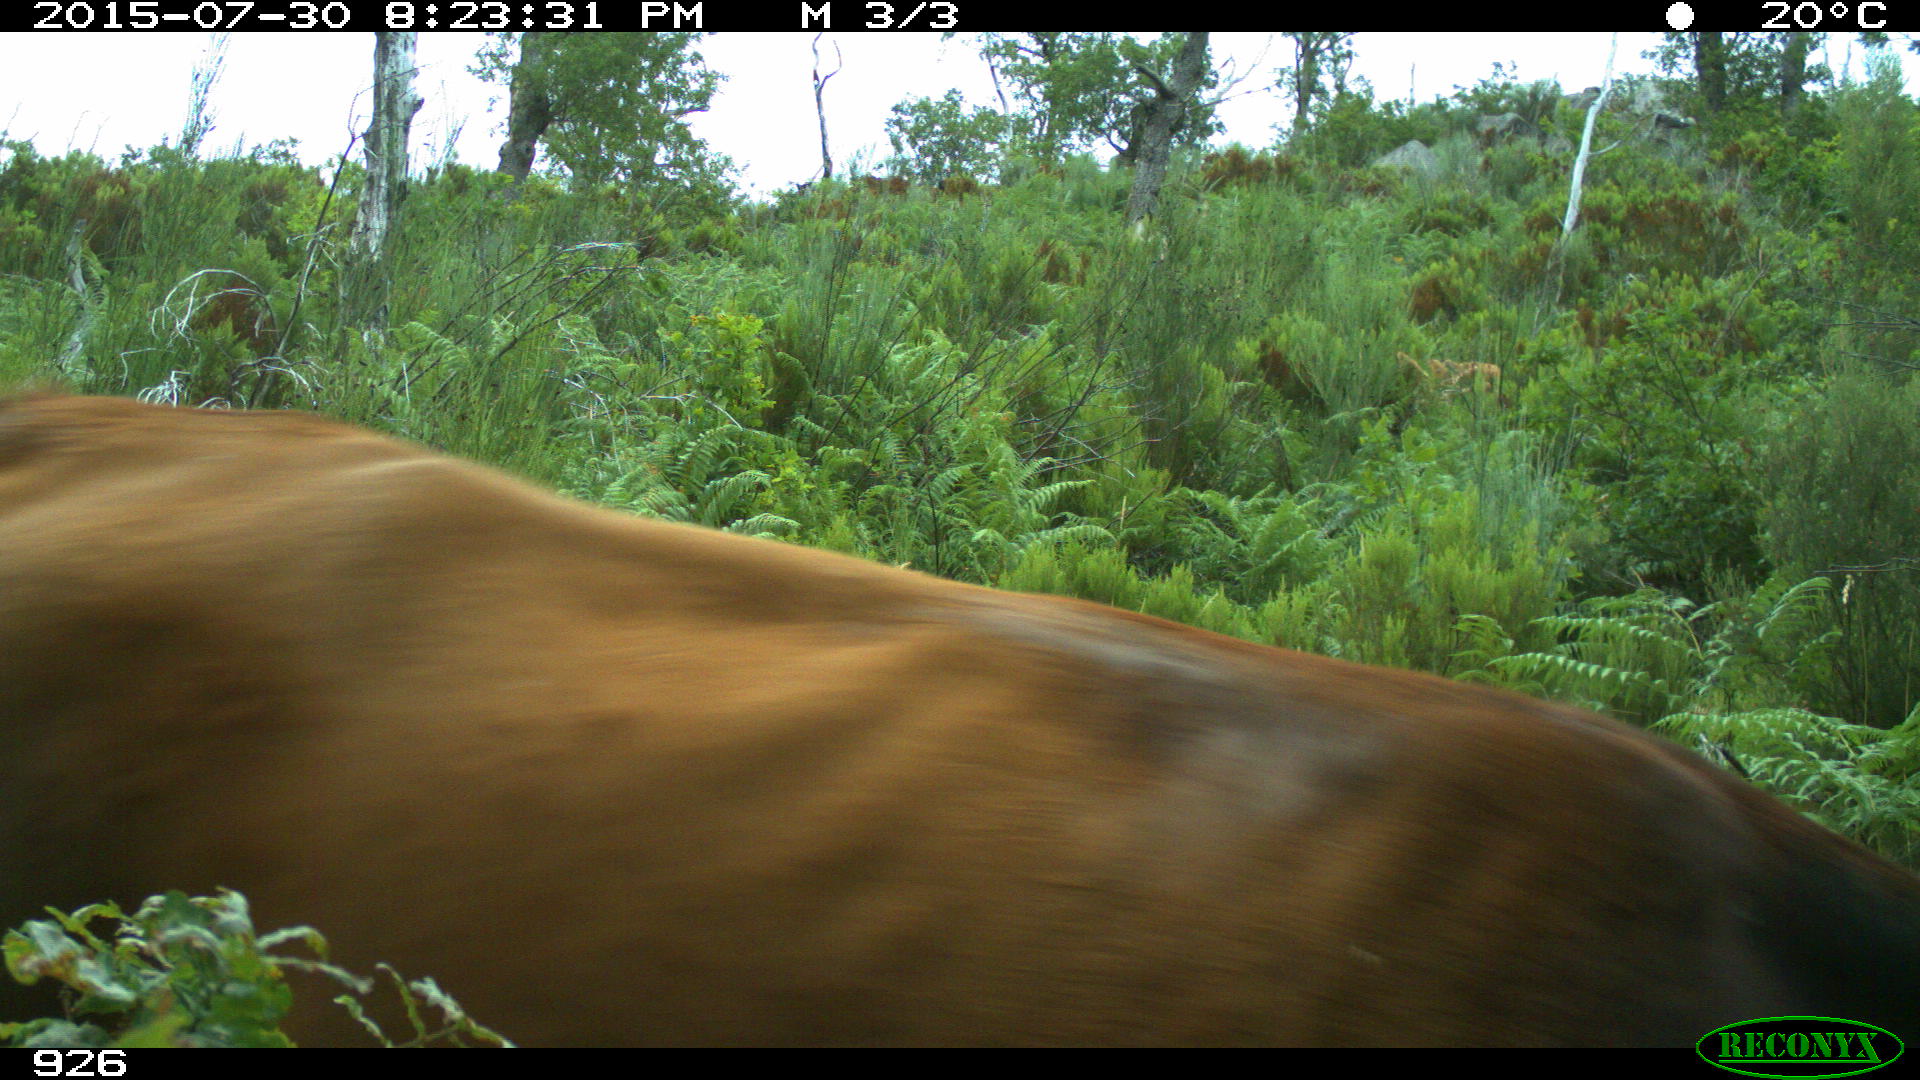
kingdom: Animalia
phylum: Chordata
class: Mammalia
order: Artiodactyla
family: Bovidae
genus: Bos
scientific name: Bos taurus
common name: Domesticated cattle
